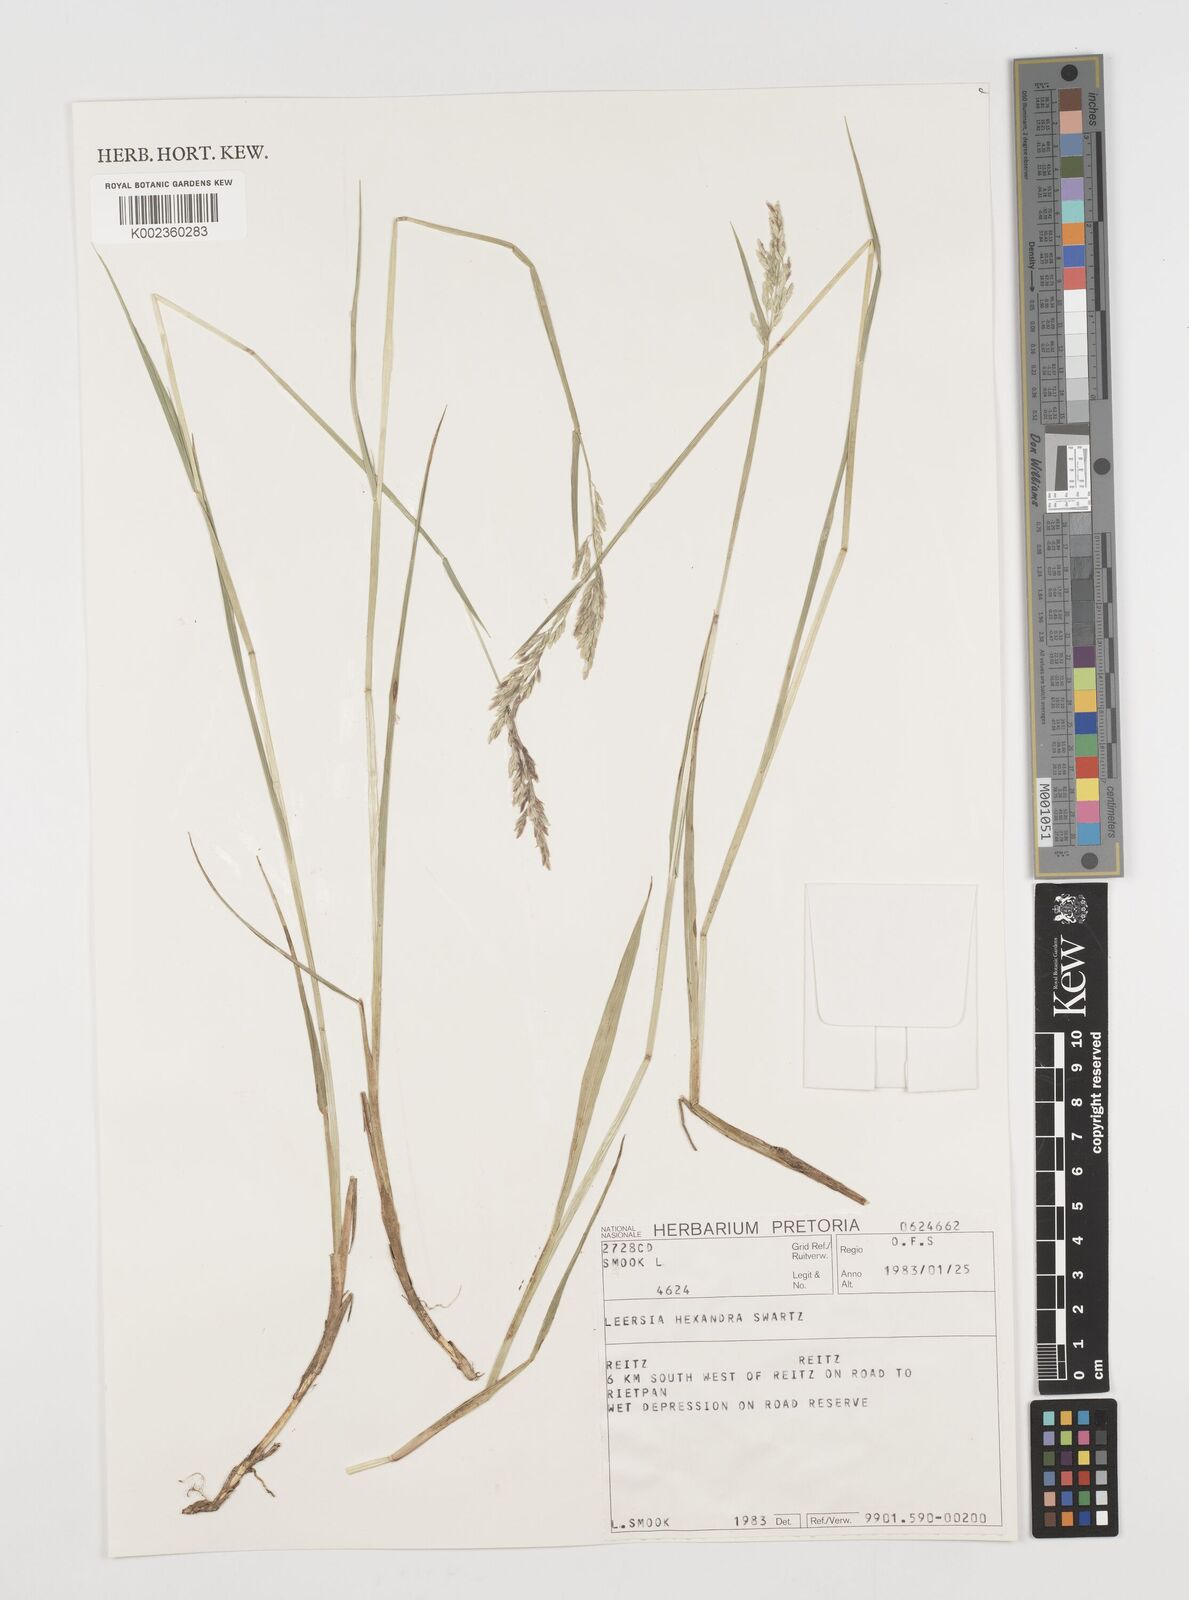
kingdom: Plantae
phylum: Tracheophyta
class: Liliopsida
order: Poales
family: Poaceae
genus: Leersia
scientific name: Leersia hexandra
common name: Southern cut grass
